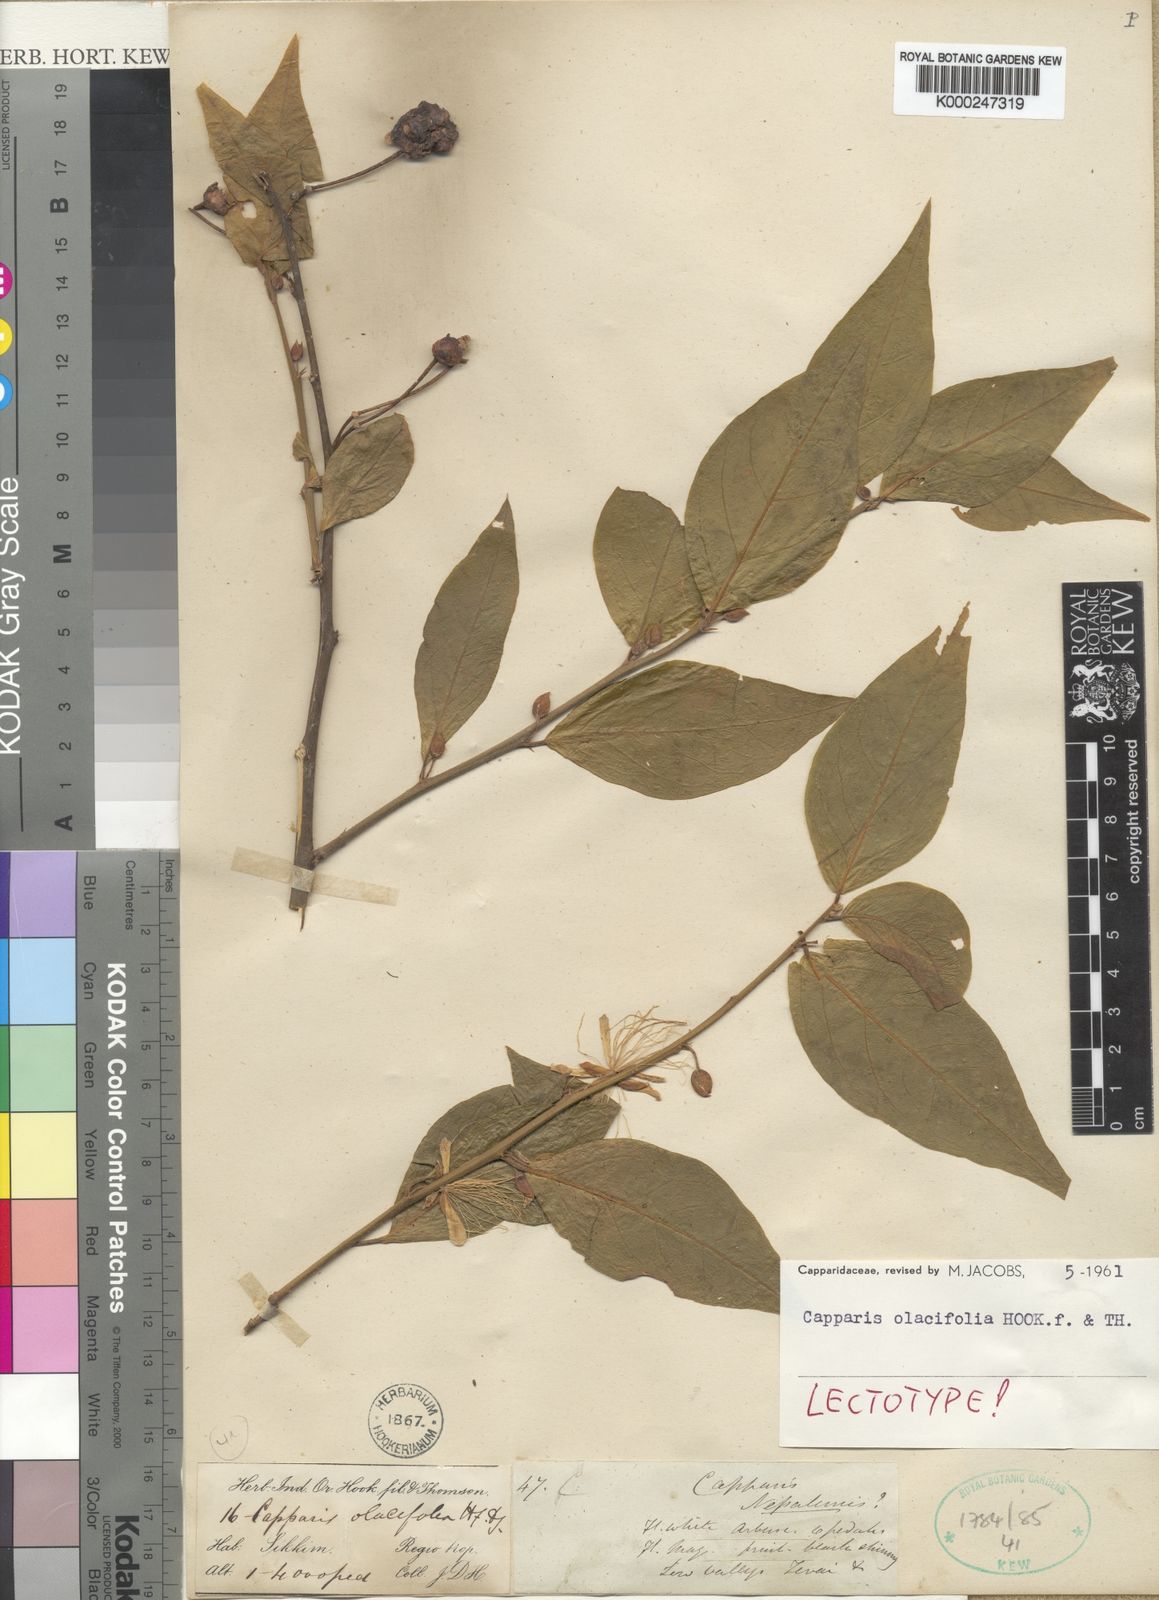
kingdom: Plantae
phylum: Tracheophyta
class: Magnoliopsida
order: Brassicales
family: Capparaceae
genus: Capparis
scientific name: Capparis olacifolia
